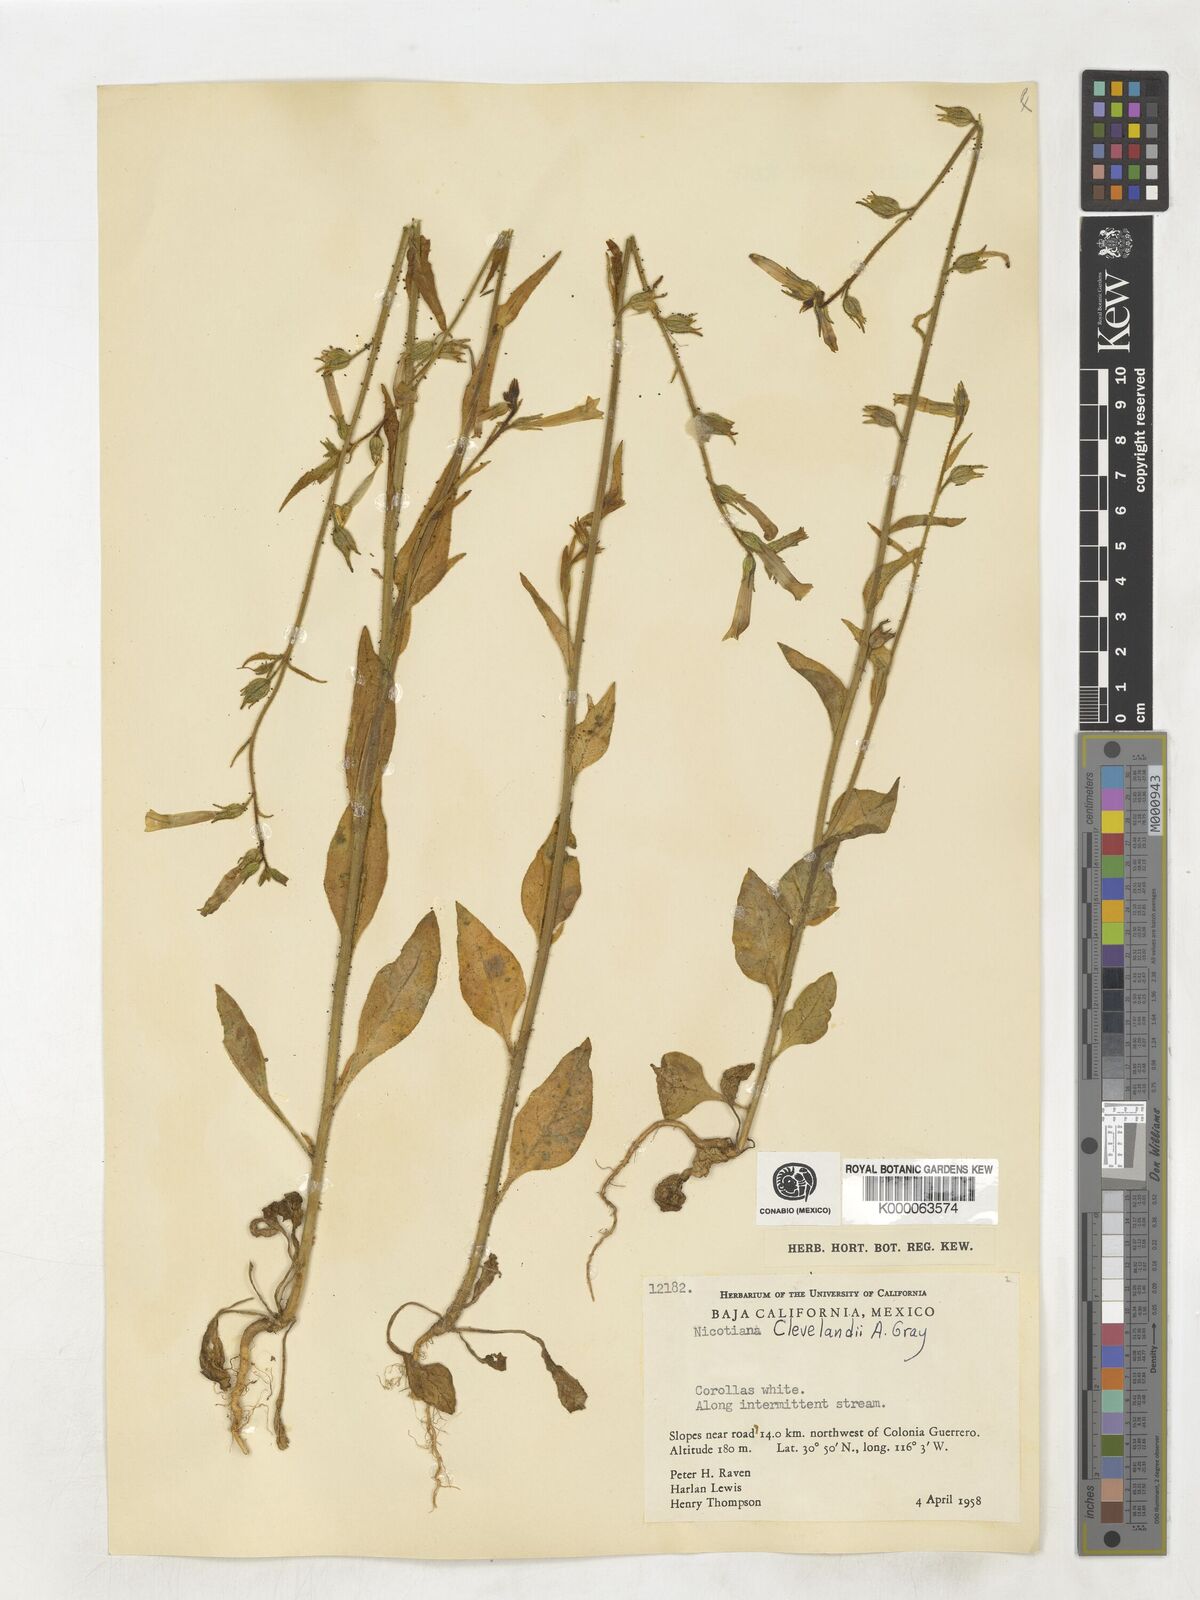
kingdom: Plantae
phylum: Tracheophyta
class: Magnoliopsida
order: Solanales
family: Solanaceae
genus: Nicotiana
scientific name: Nicotiana clevelandii
